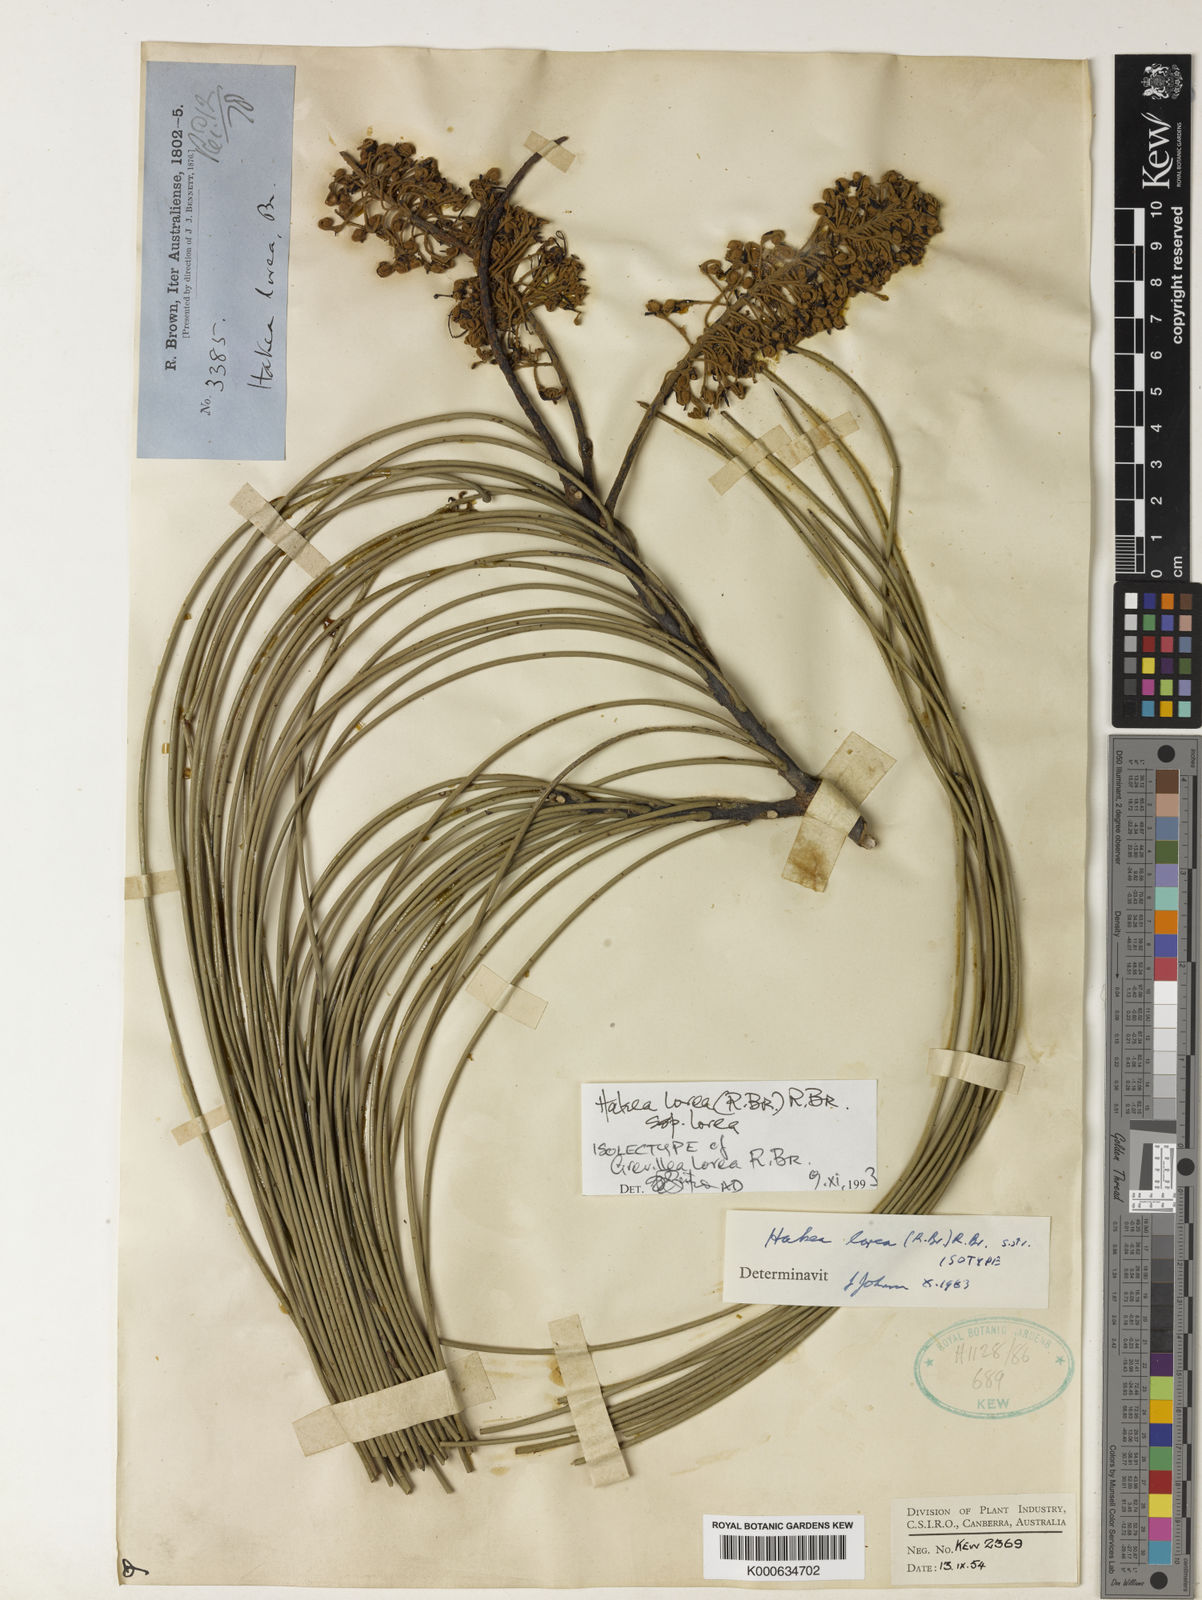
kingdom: Plantae
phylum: Tracheophyta
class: Magnoliopsida
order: Proteales
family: Proteaceae
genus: Hakea
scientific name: Hakea lorea
